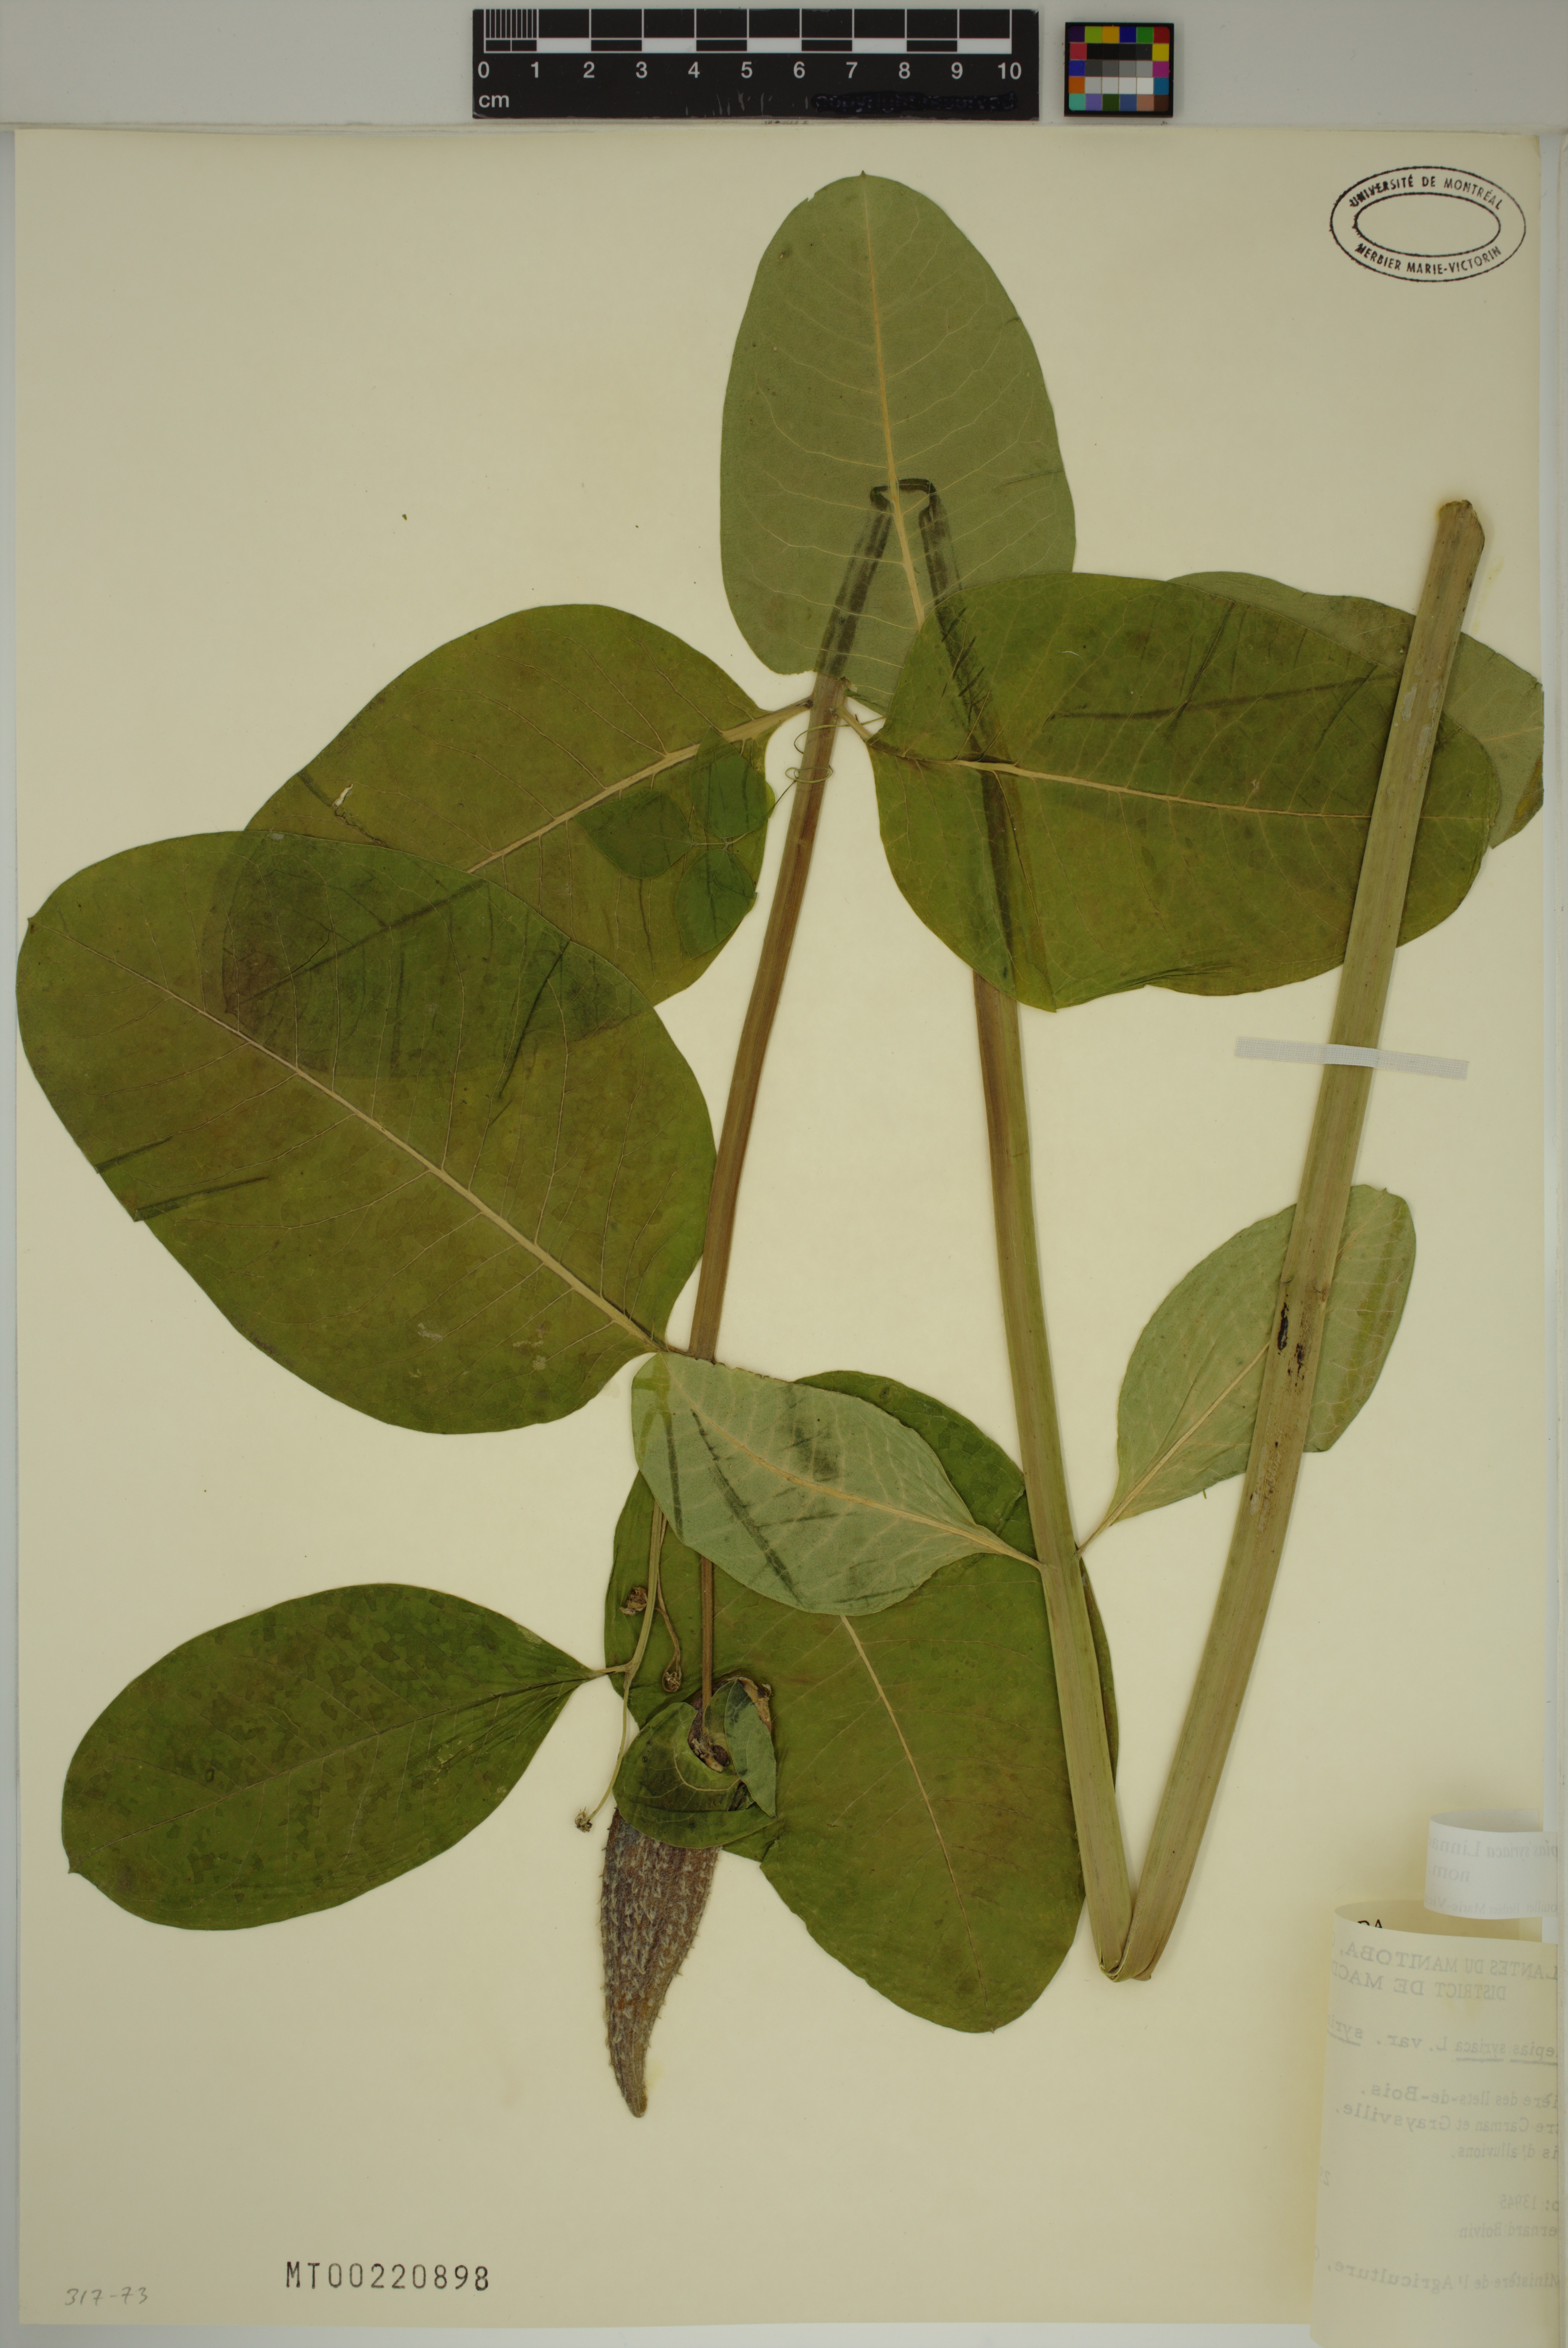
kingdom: Plantae
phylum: Tracheophyta
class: Magnoliopsida
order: Gentianales
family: Apocynaceae
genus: Asclepias
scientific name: Asclepias syriaca
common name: Common milkweed
